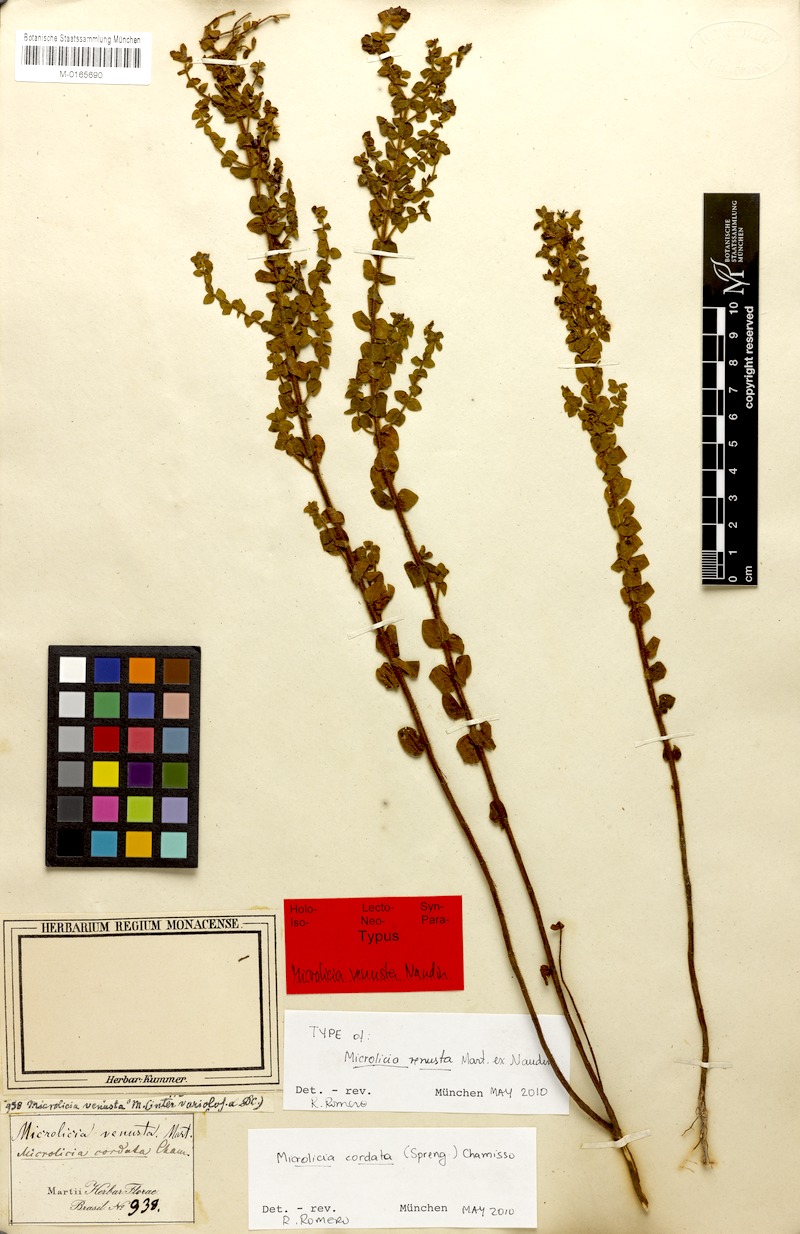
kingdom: Plantae
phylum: Tracheophyta
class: Magnoliopsida
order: Myrtales
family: Melastomataceae
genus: Microlicia
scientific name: Microlicia cordata
